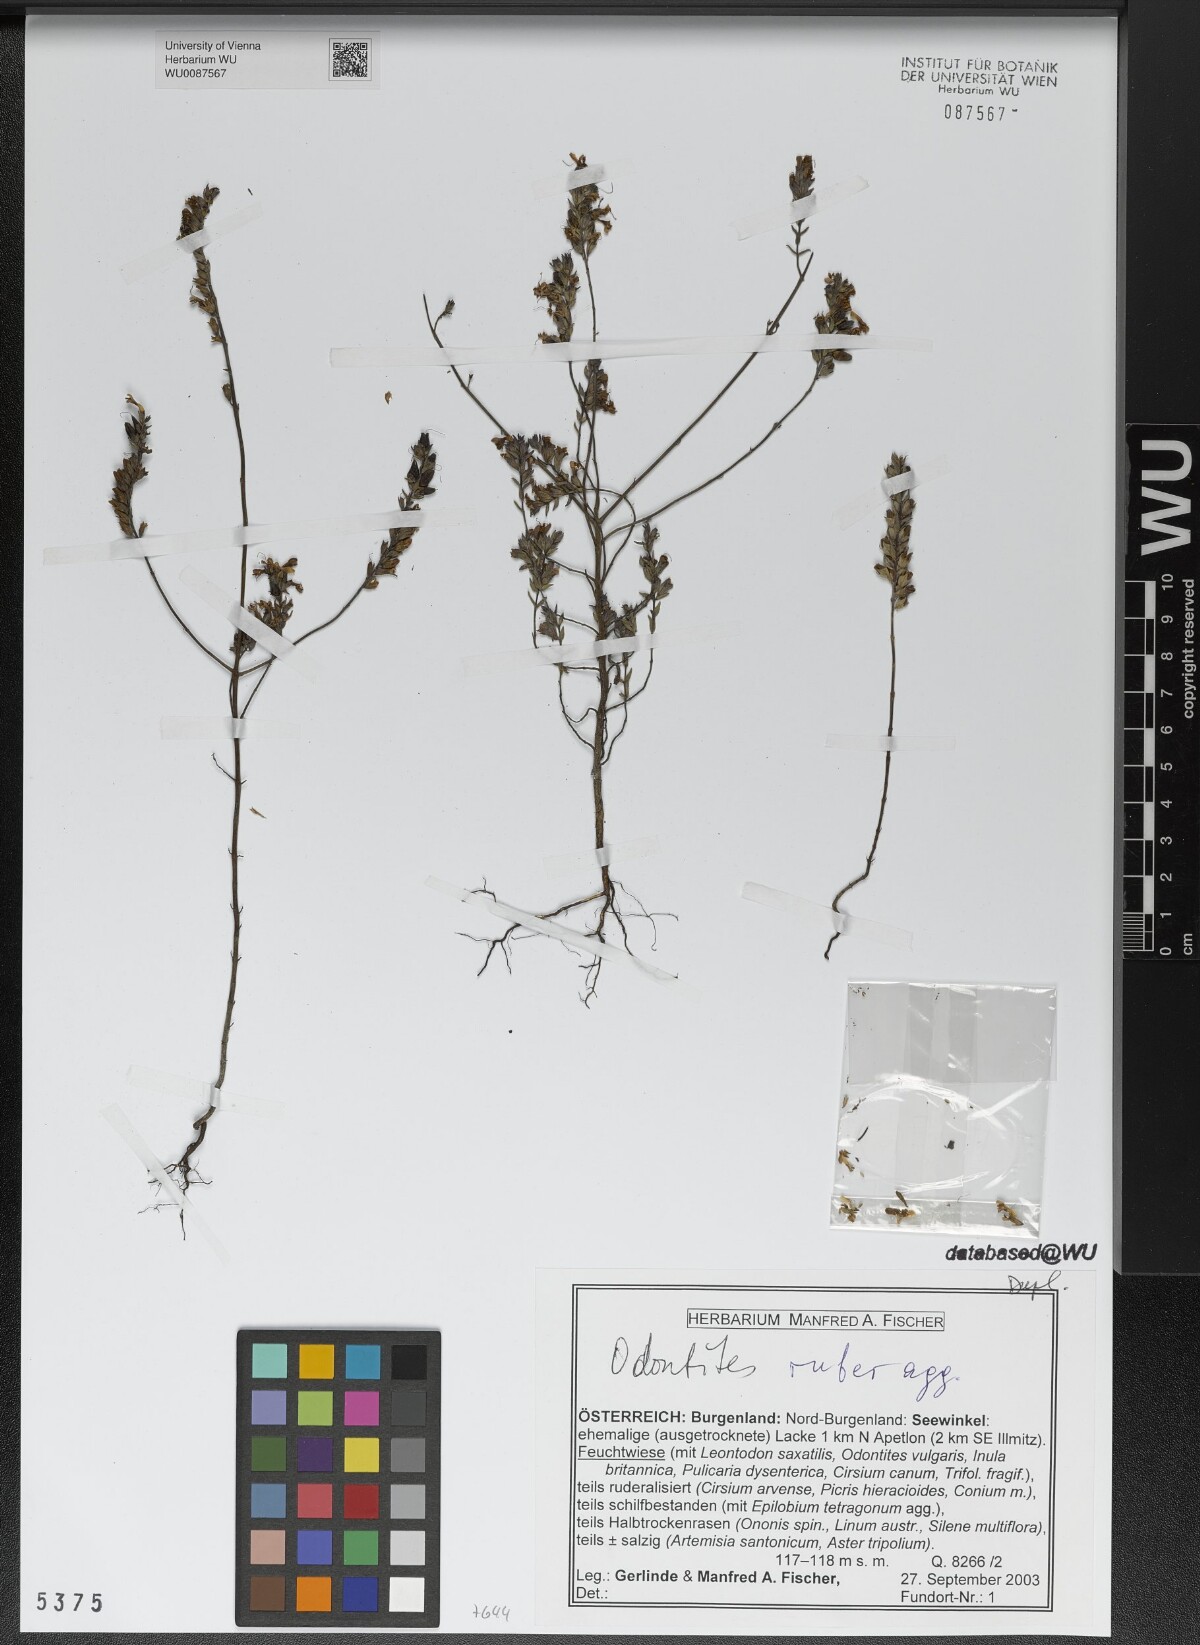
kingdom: Plantae
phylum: Tracheophyta
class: Magnoliopsida
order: Lamiales
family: Orobanchaceae
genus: Odontites
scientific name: Odontites vulgaris
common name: Broomrape
